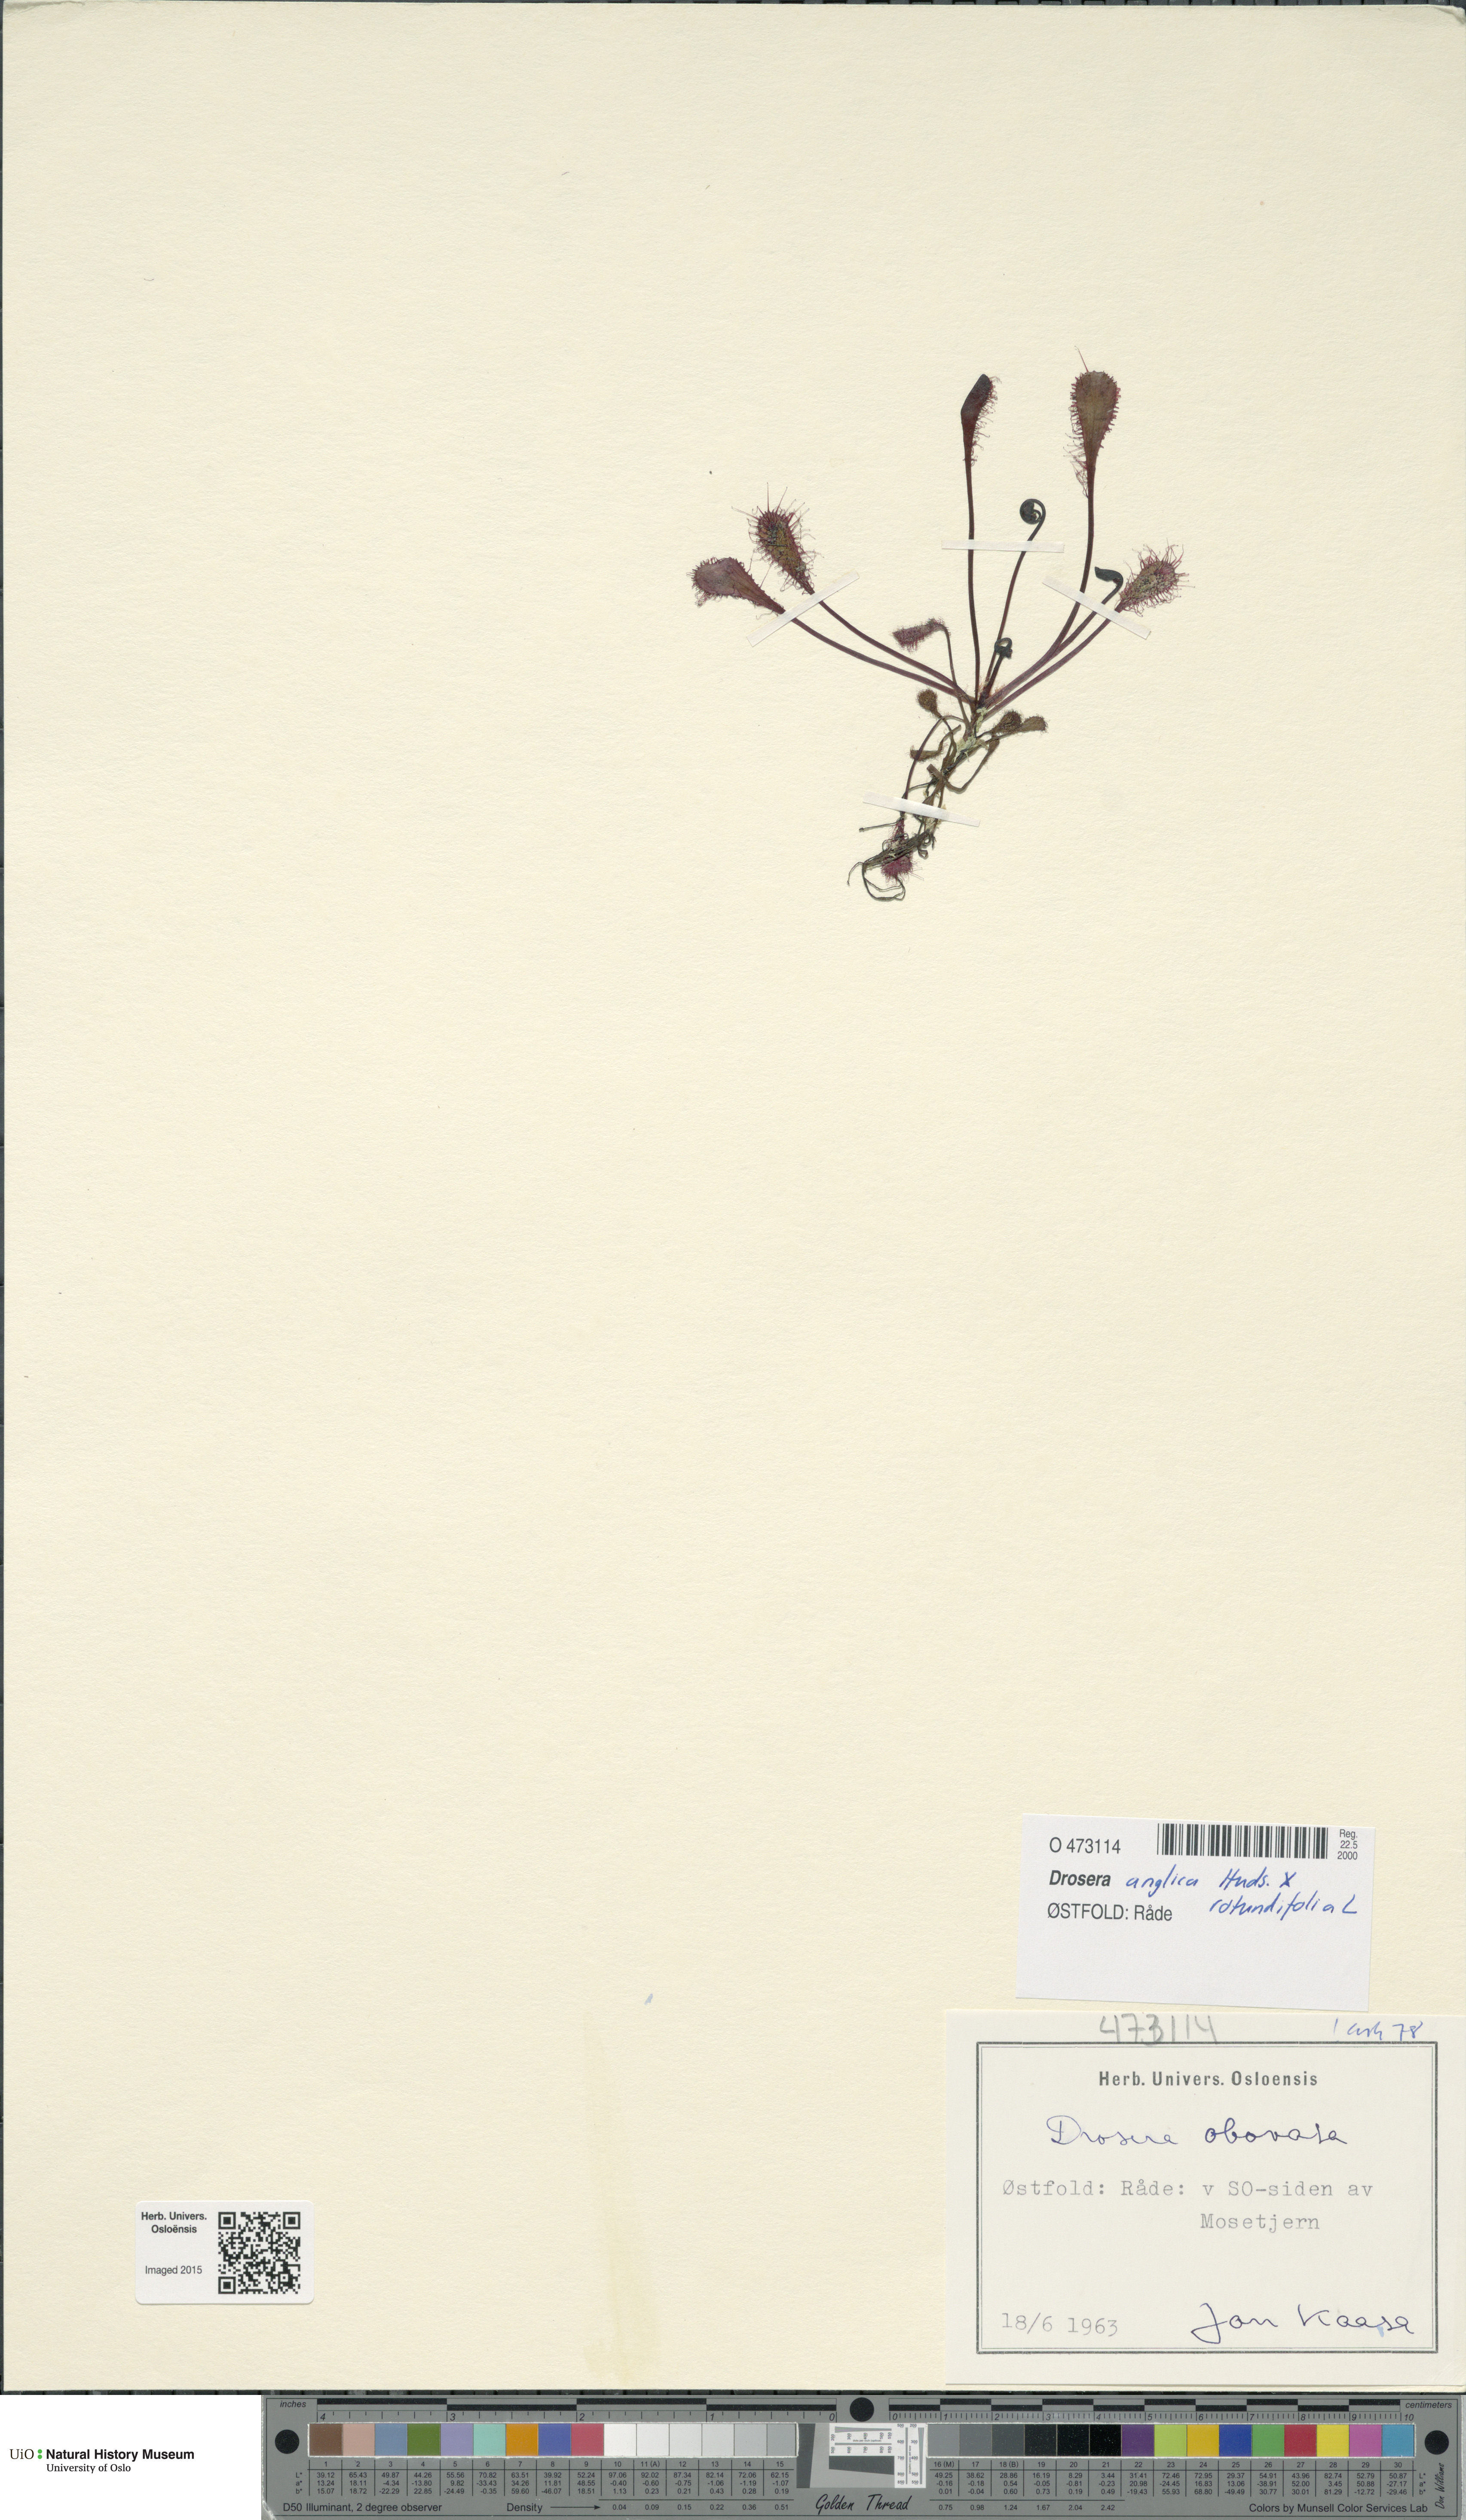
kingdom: Plantae
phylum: Tracheophyta
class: Magnoliopsida
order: Caryophyllales
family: Droseraceae
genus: Drosera
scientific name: Drosera
